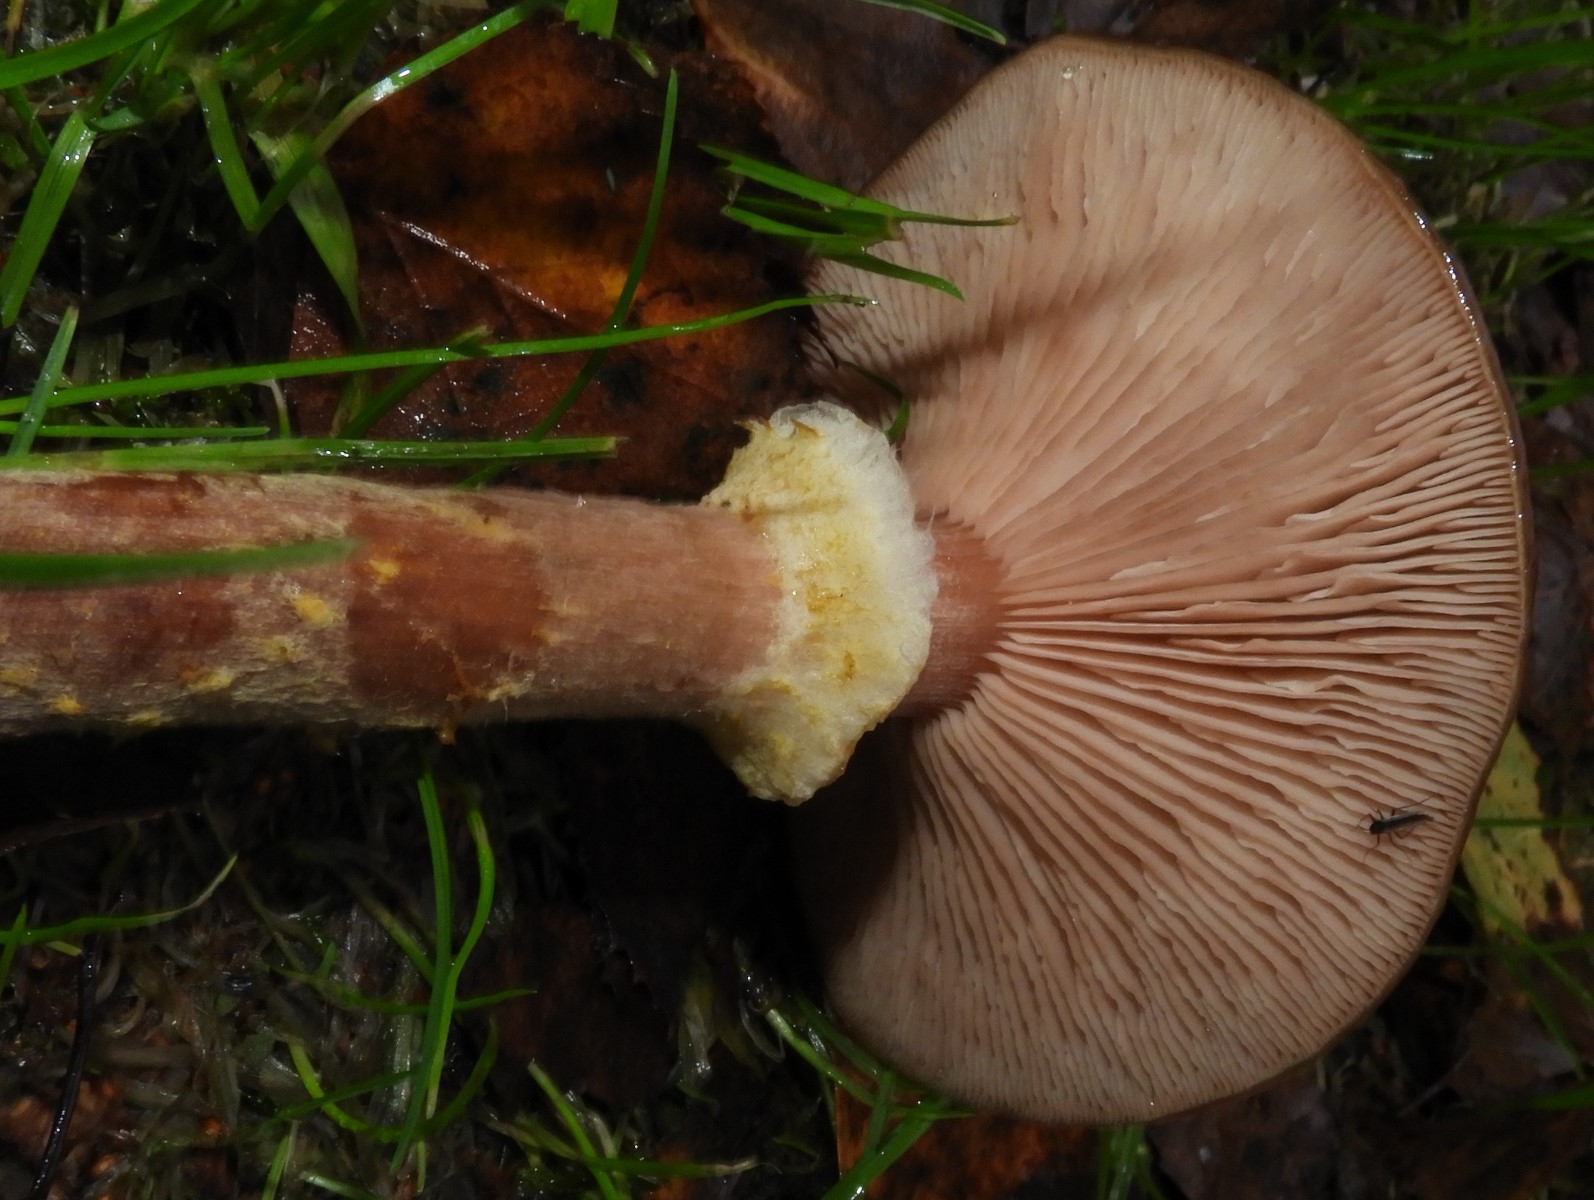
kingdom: Fungi
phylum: Basidiomycota
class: Agaricomycetes
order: Agaricales
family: Physalacriaceae
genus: Armillaria
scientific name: Armillaria lutea
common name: køllestokket honningsvamp
